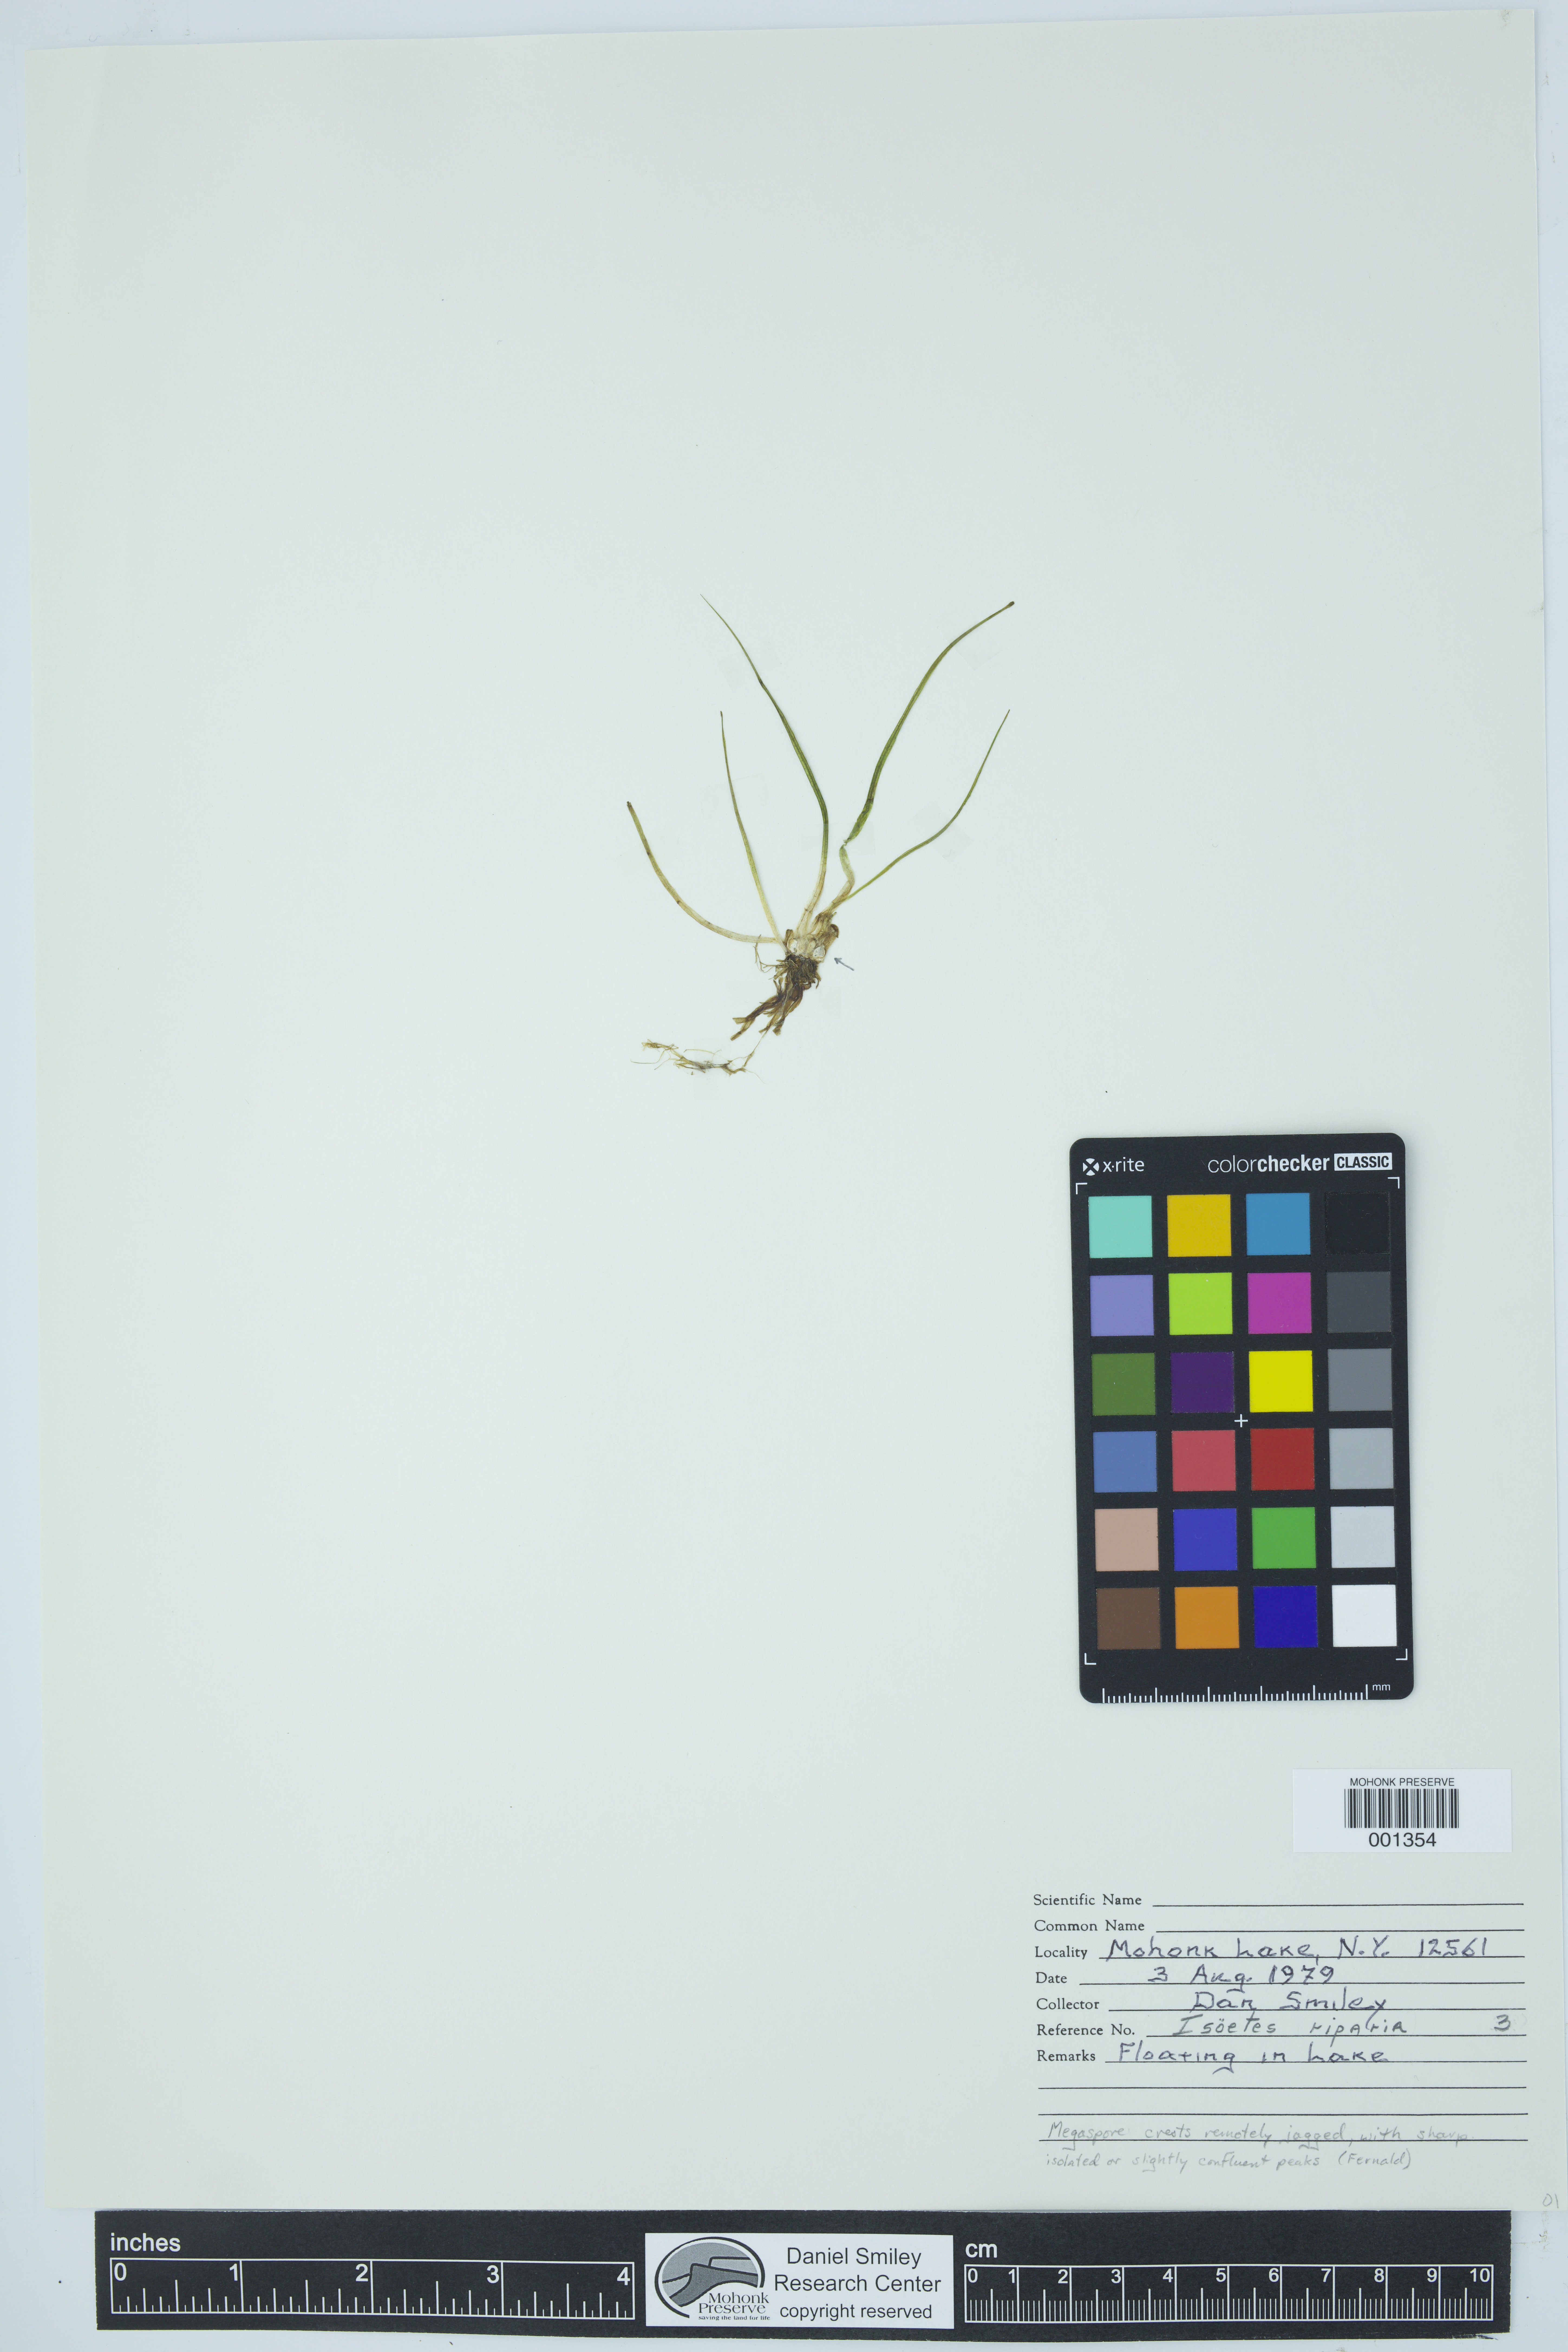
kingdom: Plantae
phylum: Tracheophyta
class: Lycopodiopsida
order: Isoetales
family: Isoetaceae
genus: Isoetes
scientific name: Isoetes riparia
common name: Riverbank quillwort
